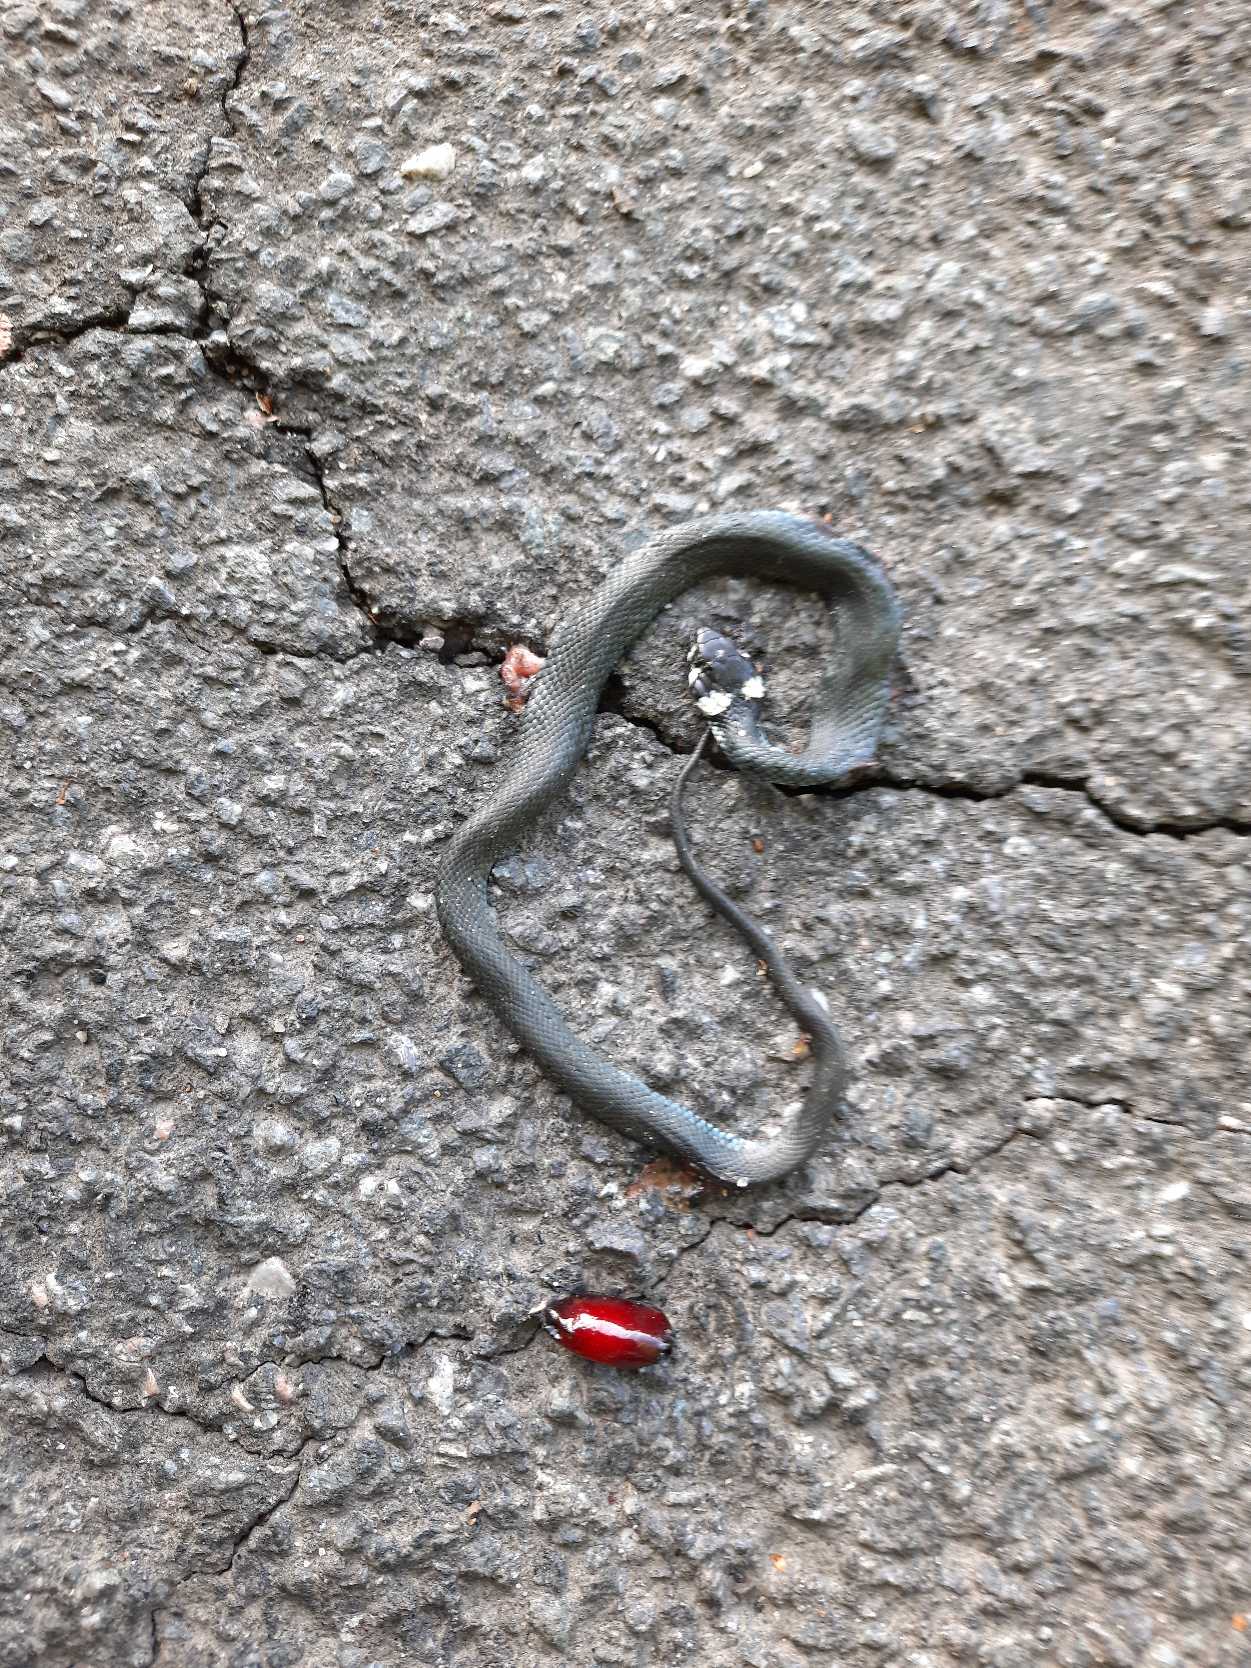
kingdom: Animalia
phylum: Chordata
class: Squamata
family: Colubridae
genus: Natrix
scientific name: Natrix natrix
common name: Snog
